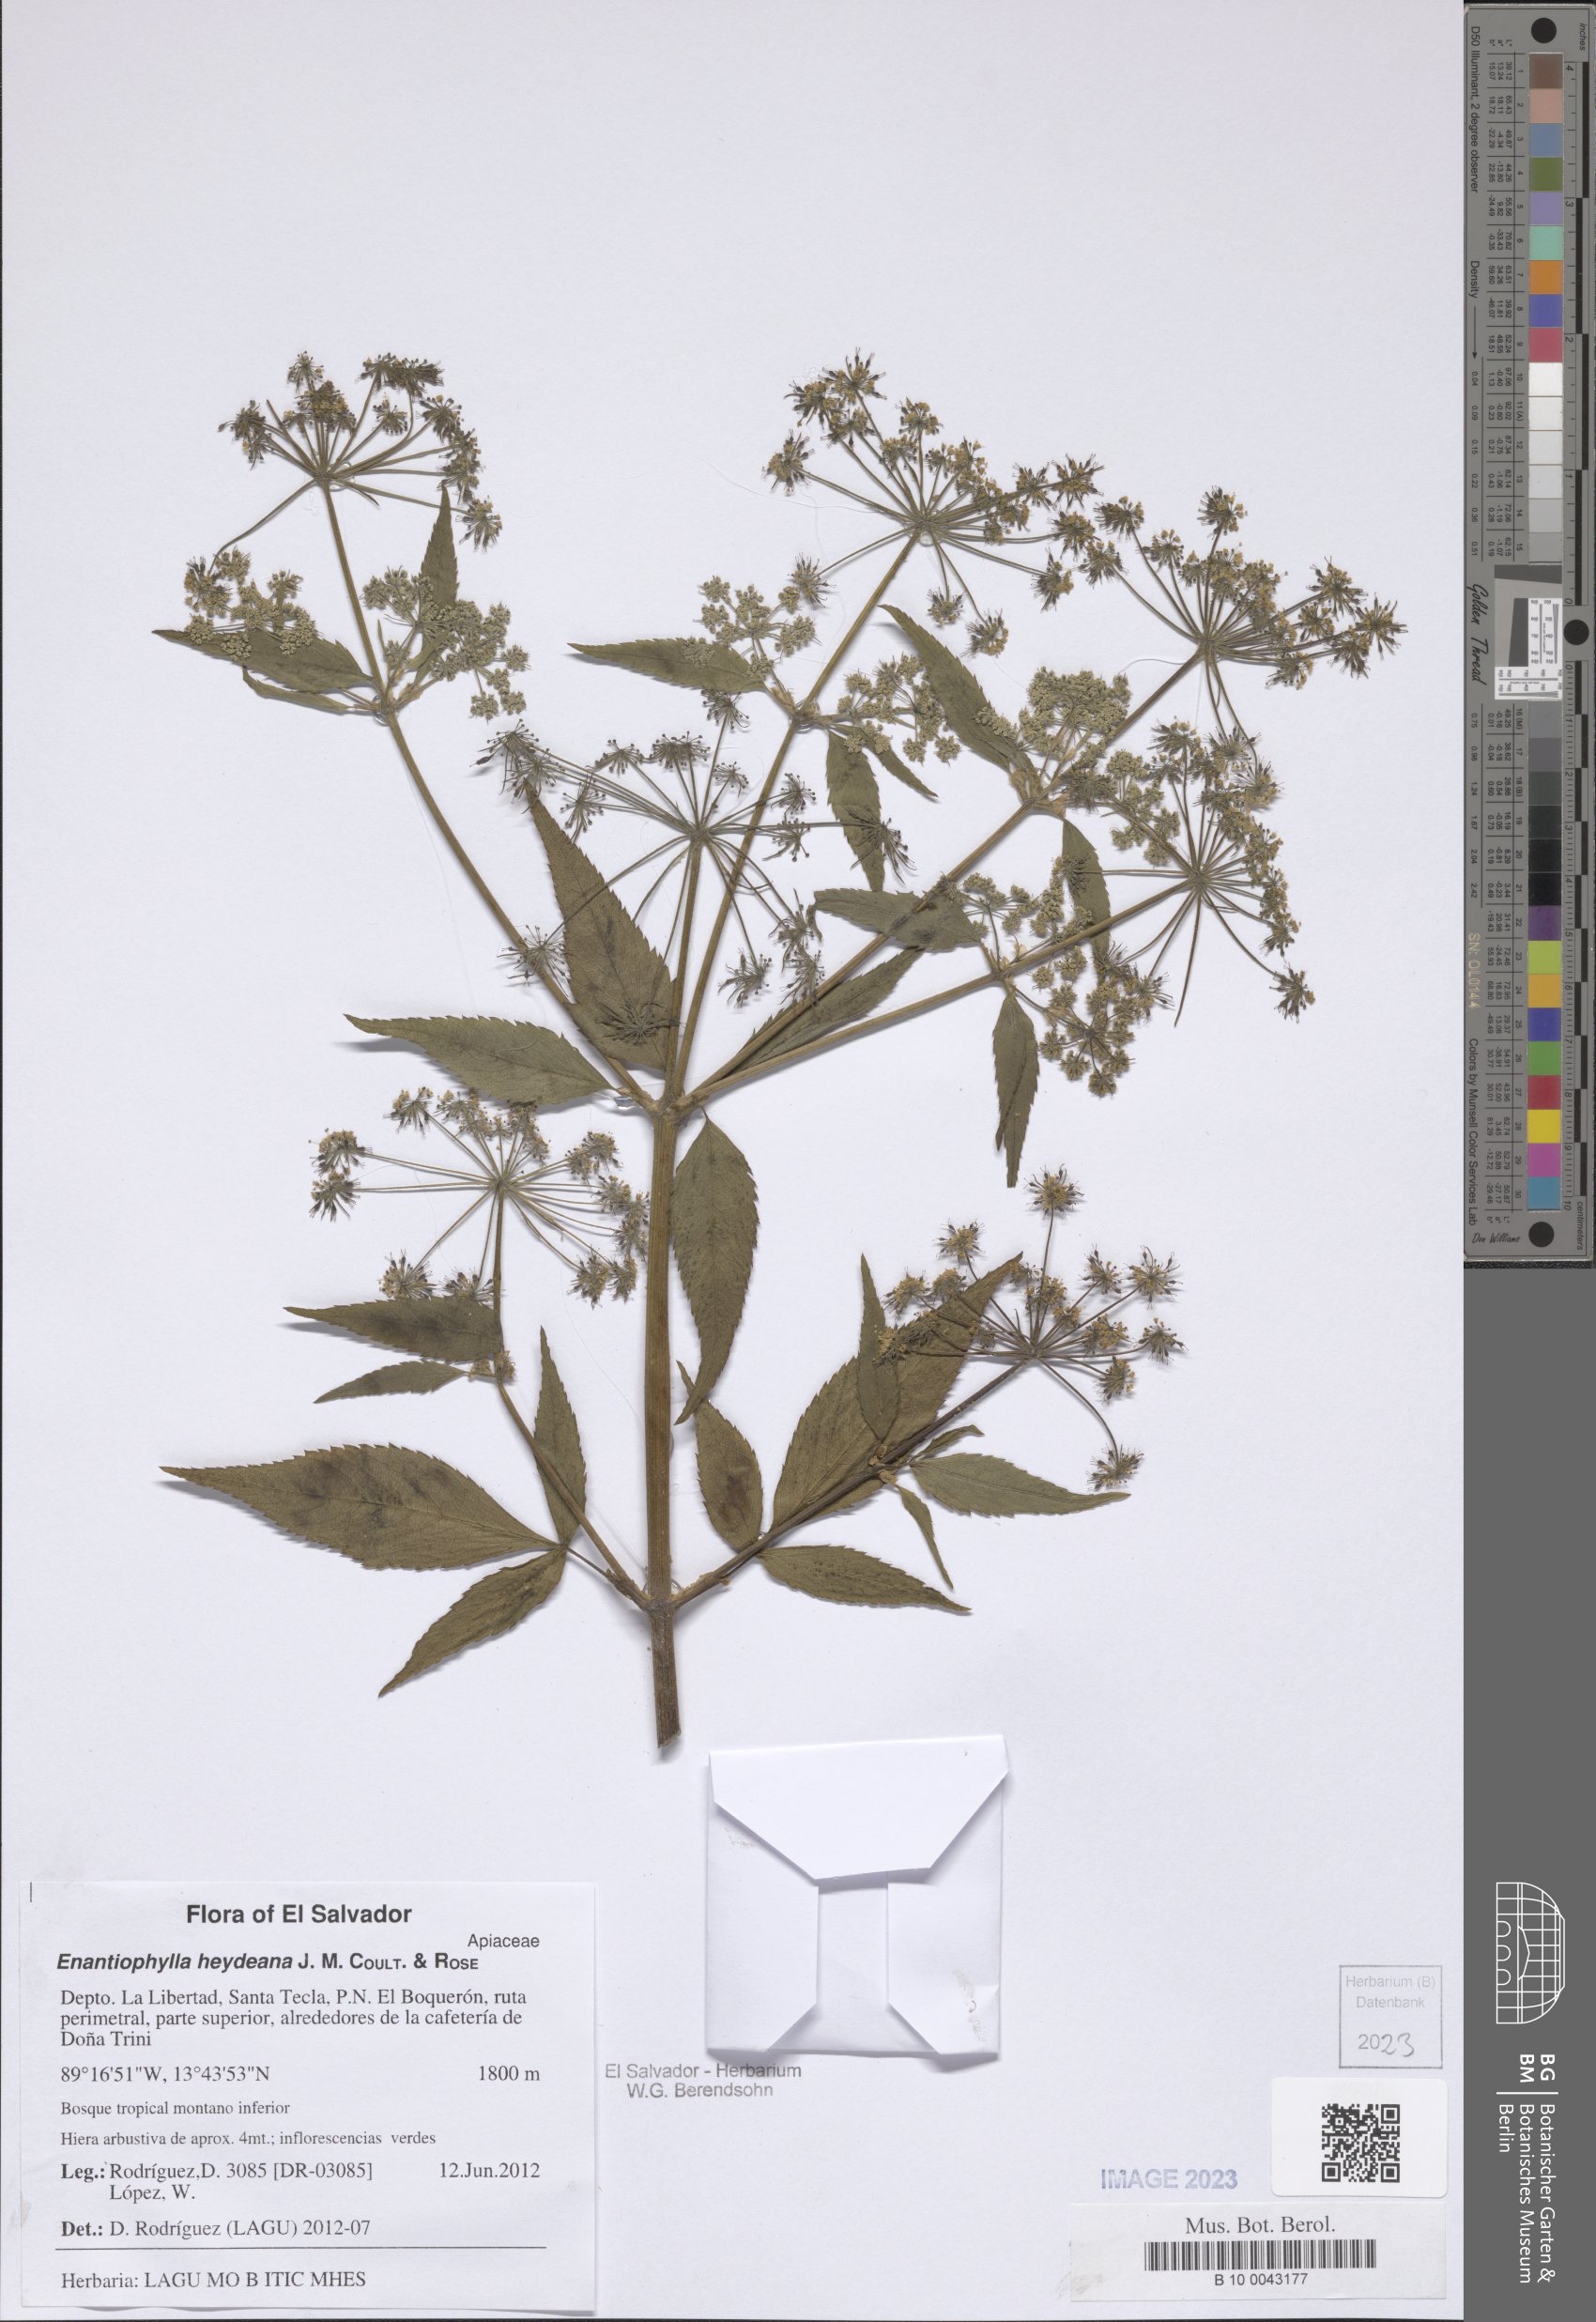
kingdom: Plantae
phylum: Tracheophyta
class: Magnoliopsida
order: Apiales
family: Apiaceae
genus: Enantiophylla
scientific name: Enantiophylla heydeana
